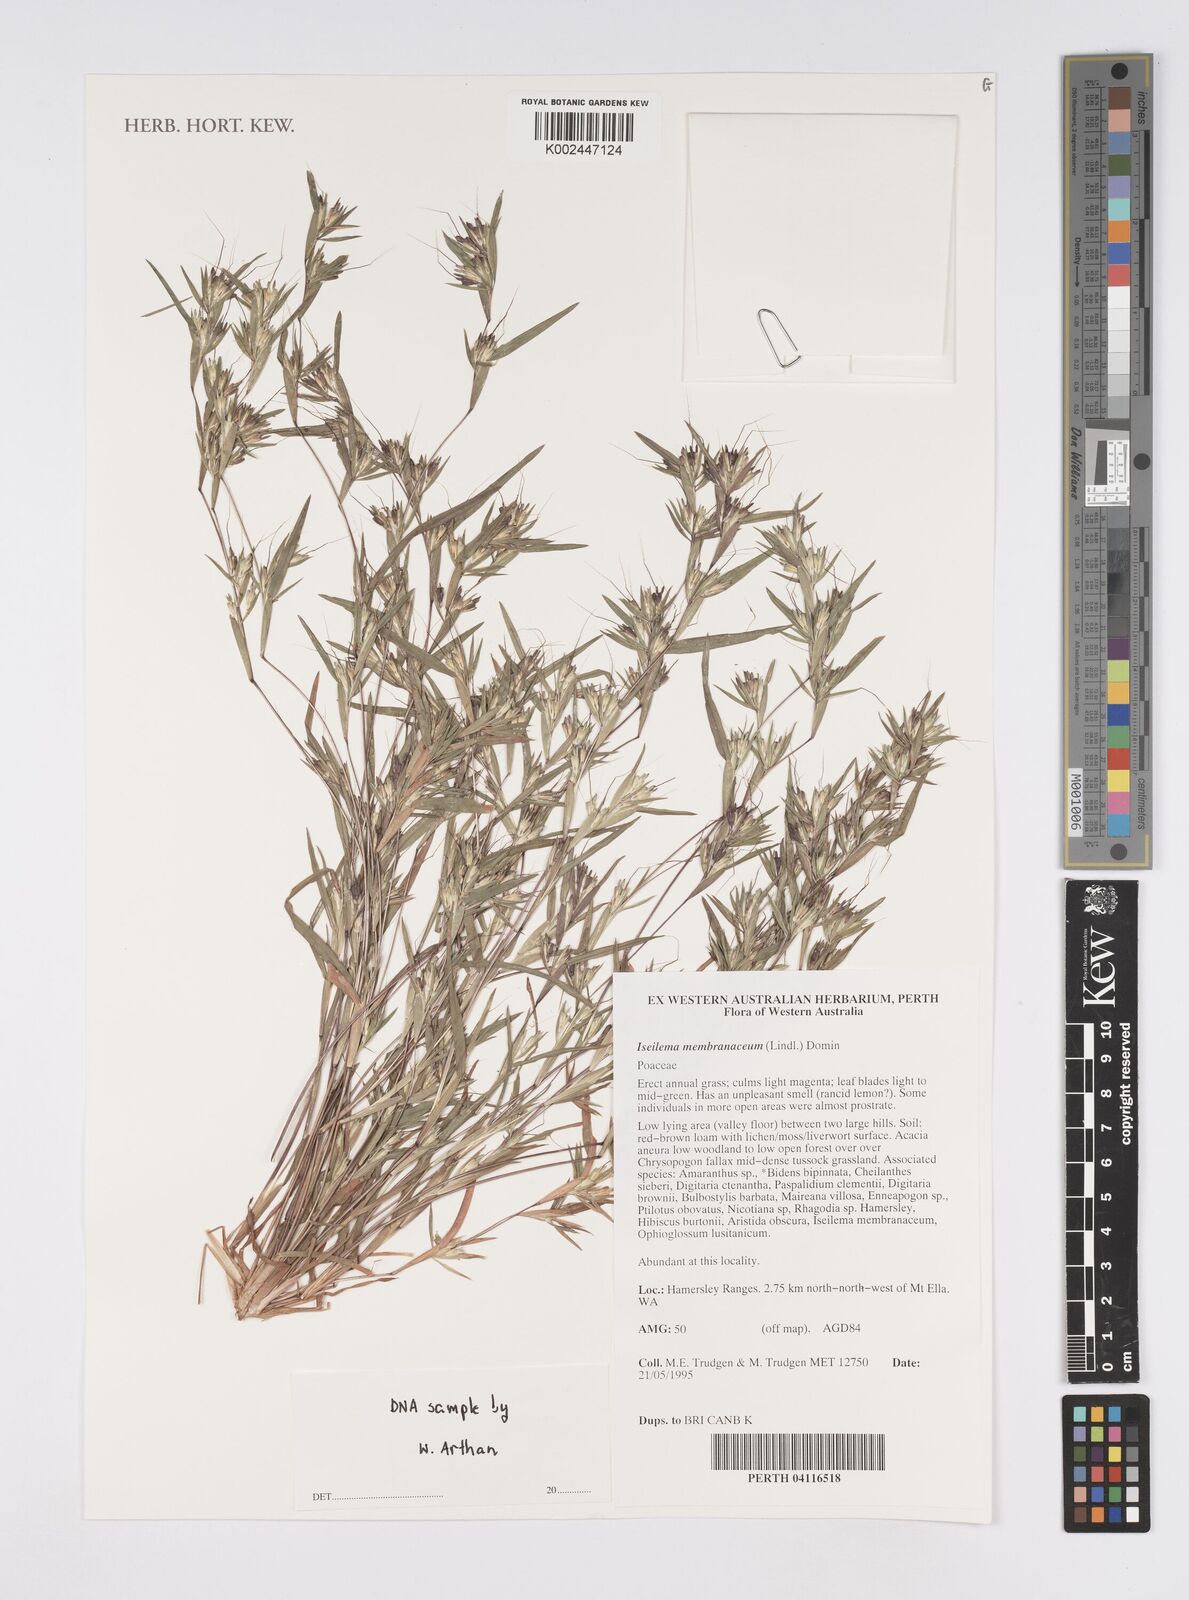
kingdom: Plantae
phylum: Tracheophyta
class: Liliopsida
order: Poales
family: Poaceae
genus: Iseilema
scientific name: Iseilema membranaceum
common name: Small flinders grass
